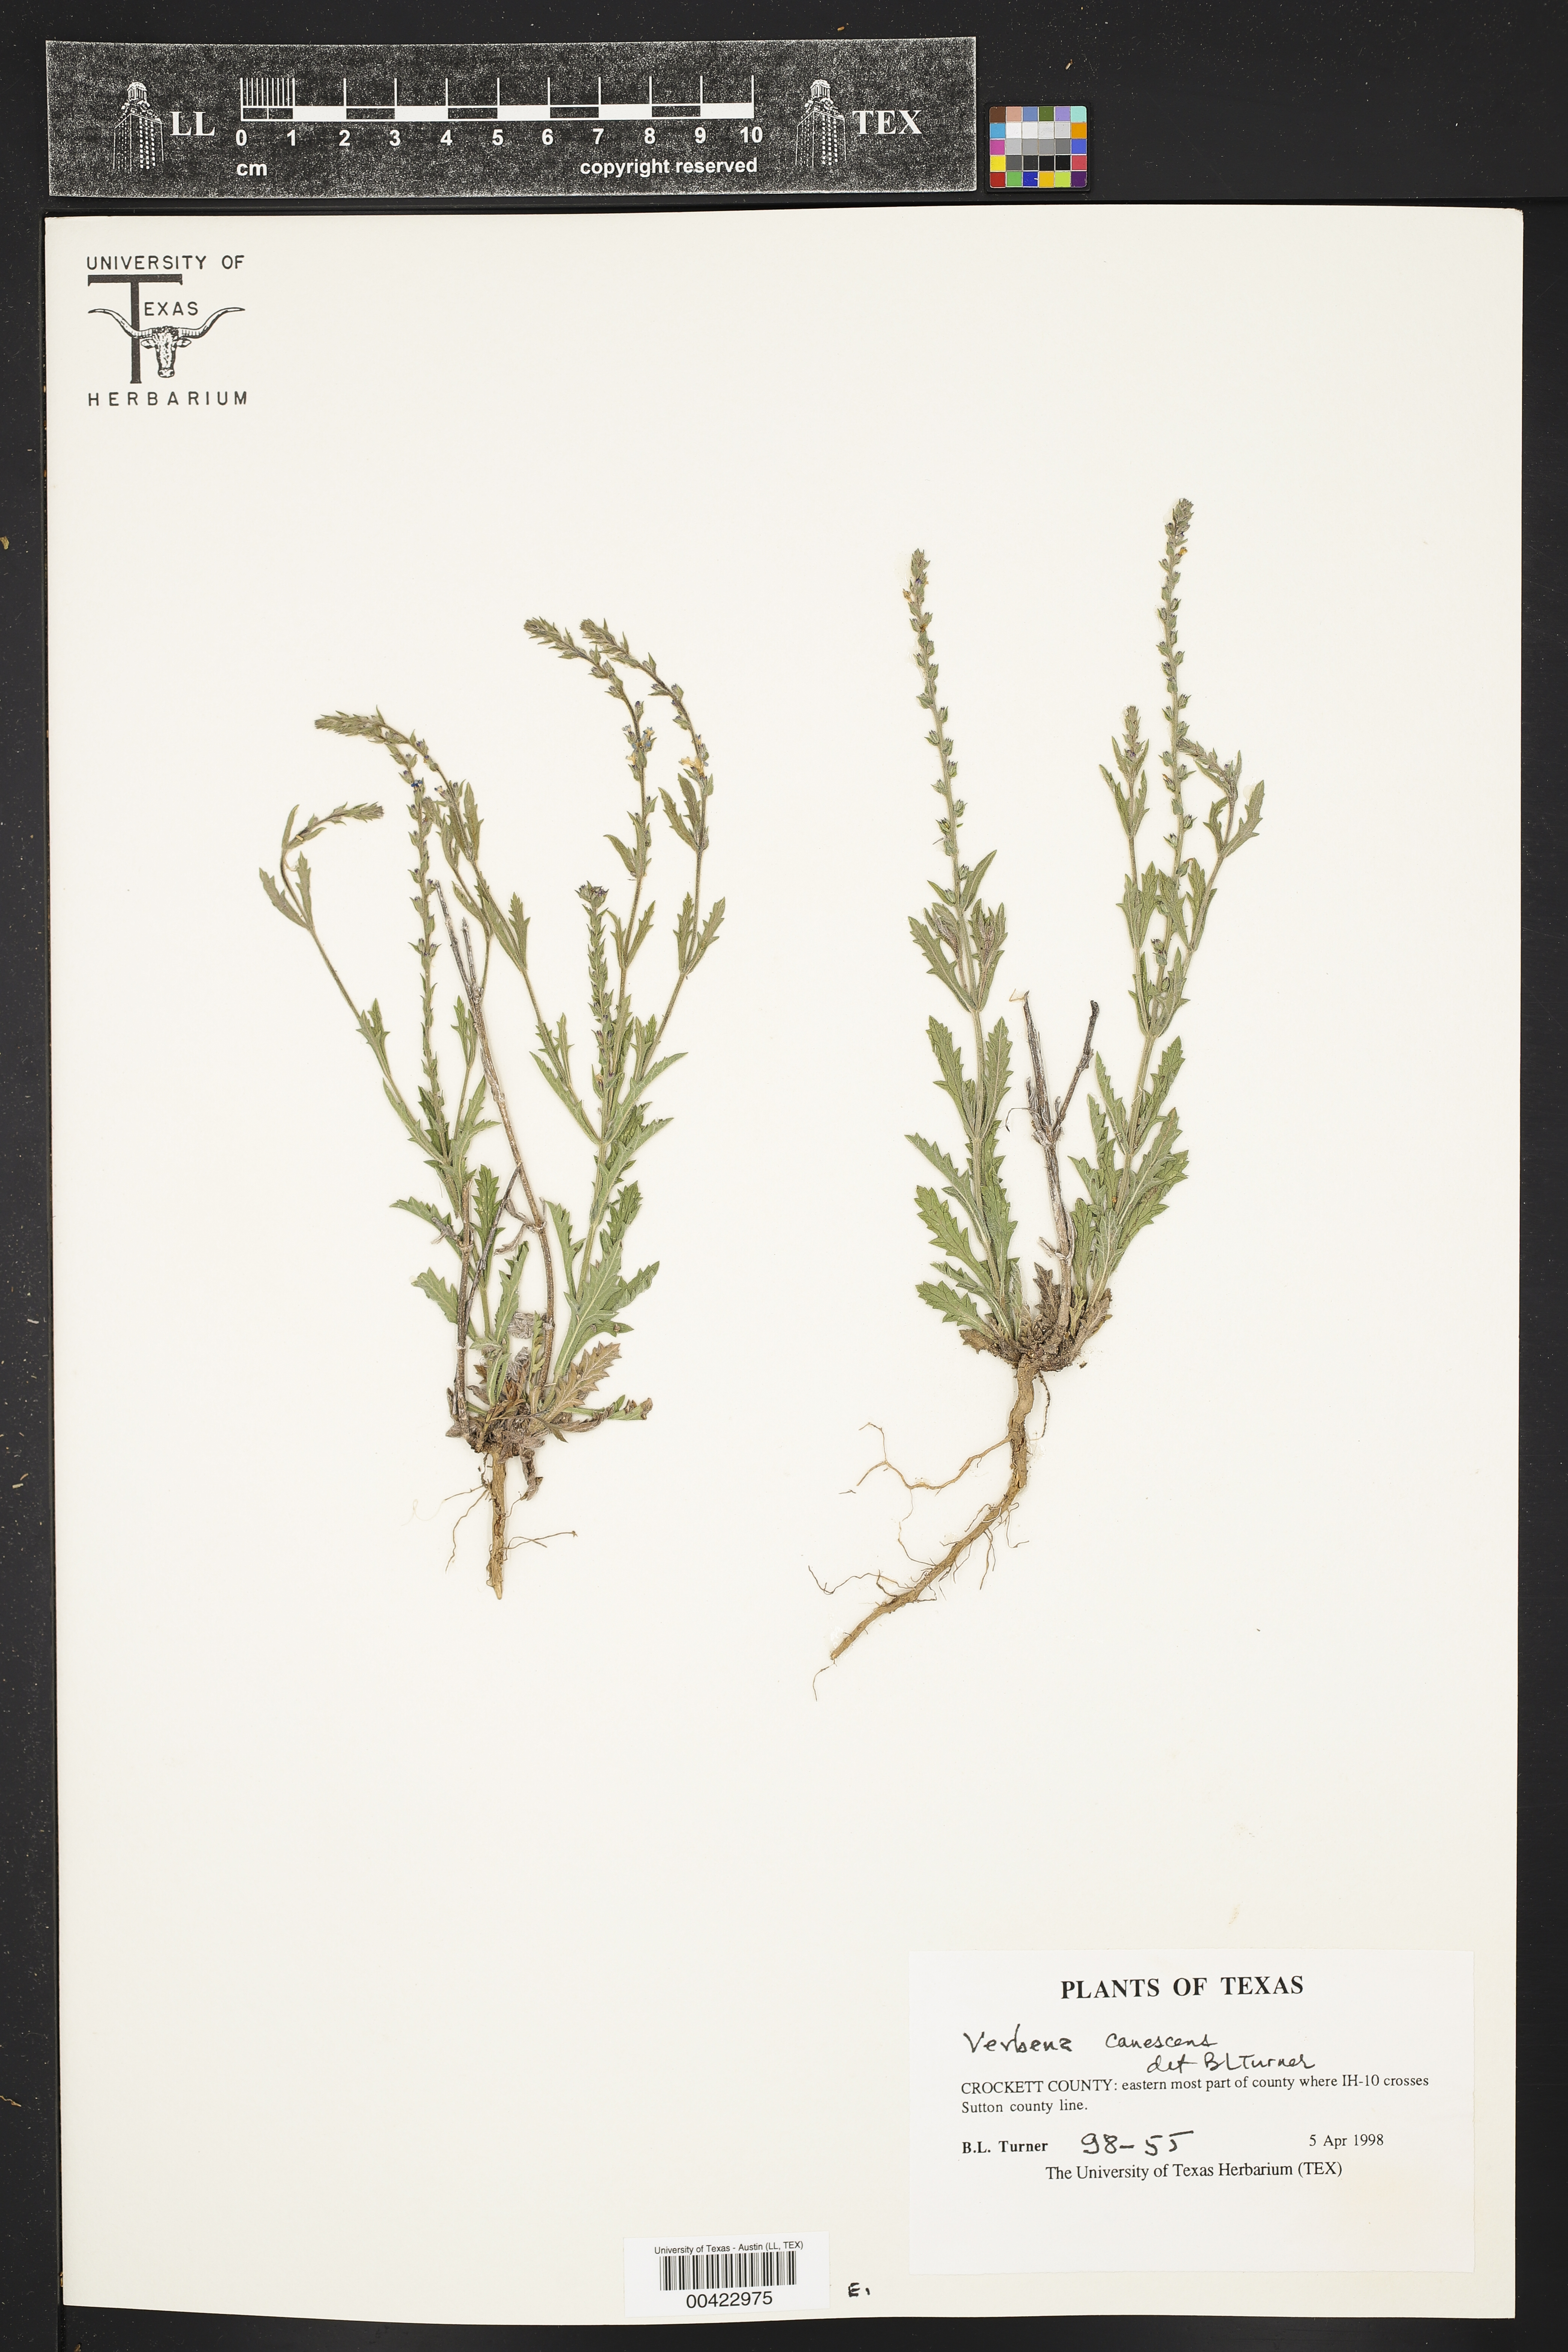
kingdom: Plantae
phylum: Tracheophyta
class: Magnoliopsida
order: Lamiales
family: Verbenaceae
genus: Verbena
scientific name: Verbena canescens
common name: Gray vervain
